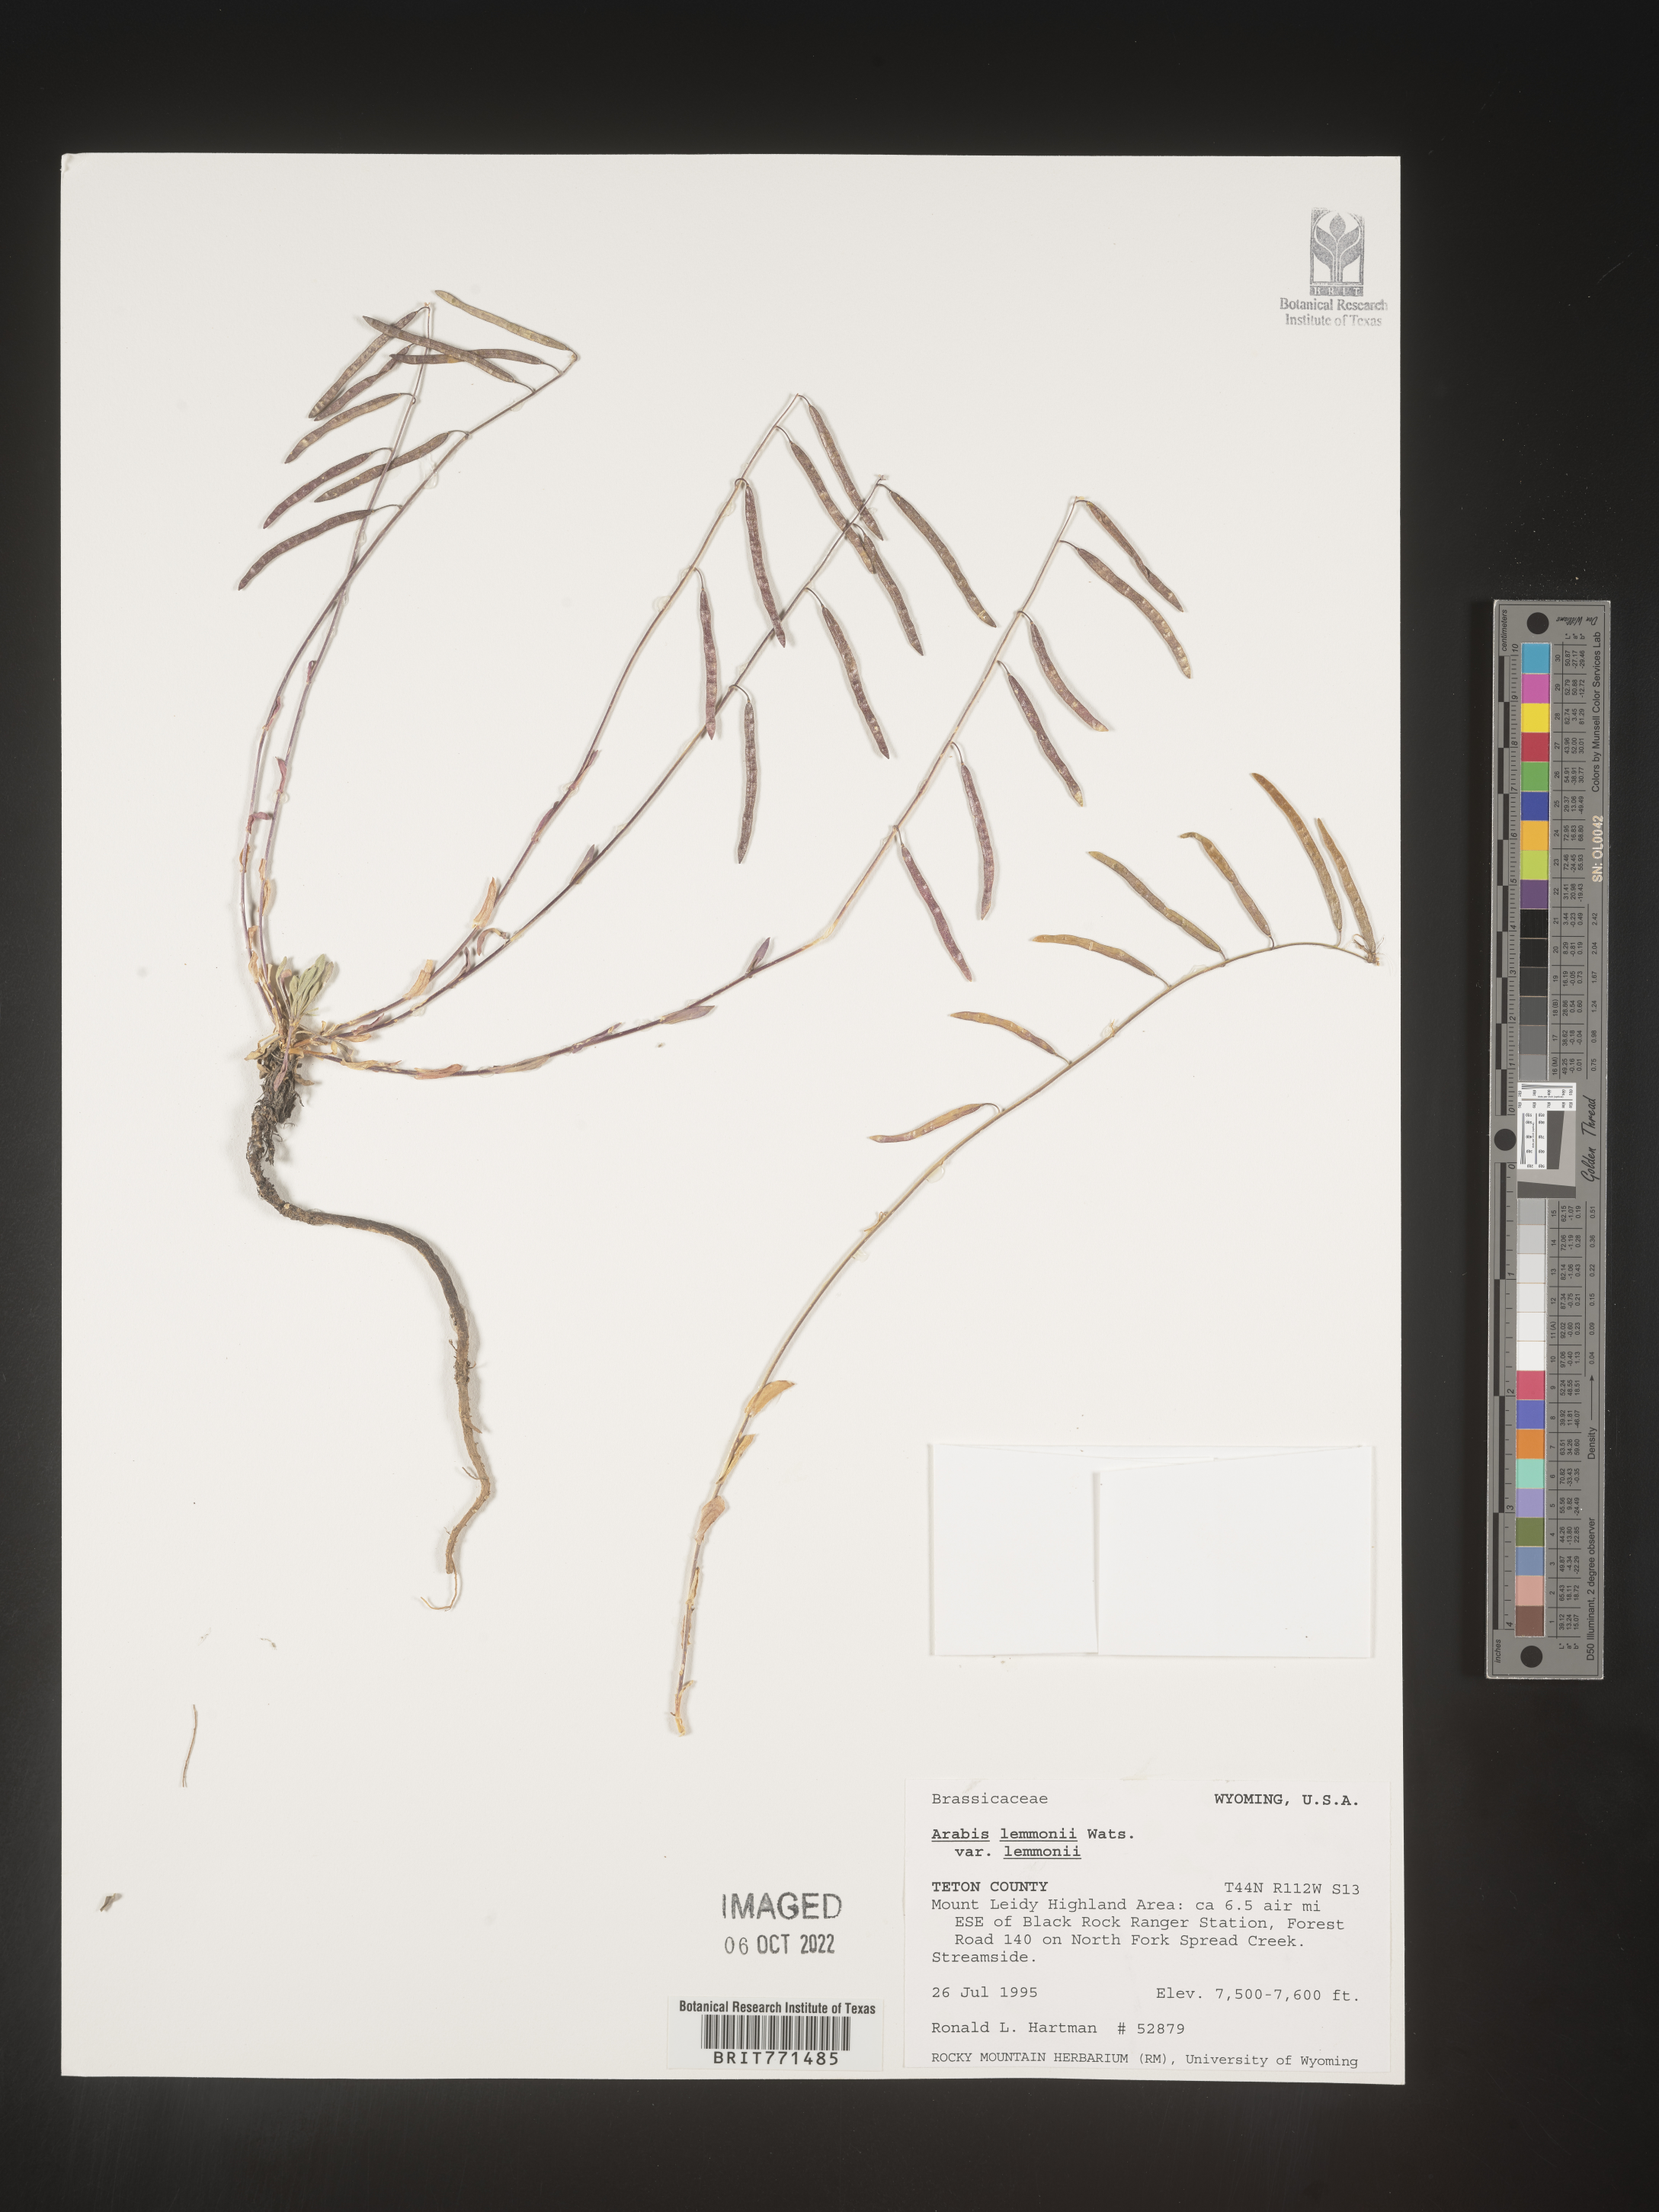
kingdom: Plantae
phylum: Tracheophyta
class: Magnoliopsida
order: Brassicales
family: Brassicaceae
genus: Arabis
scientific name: Arabis
